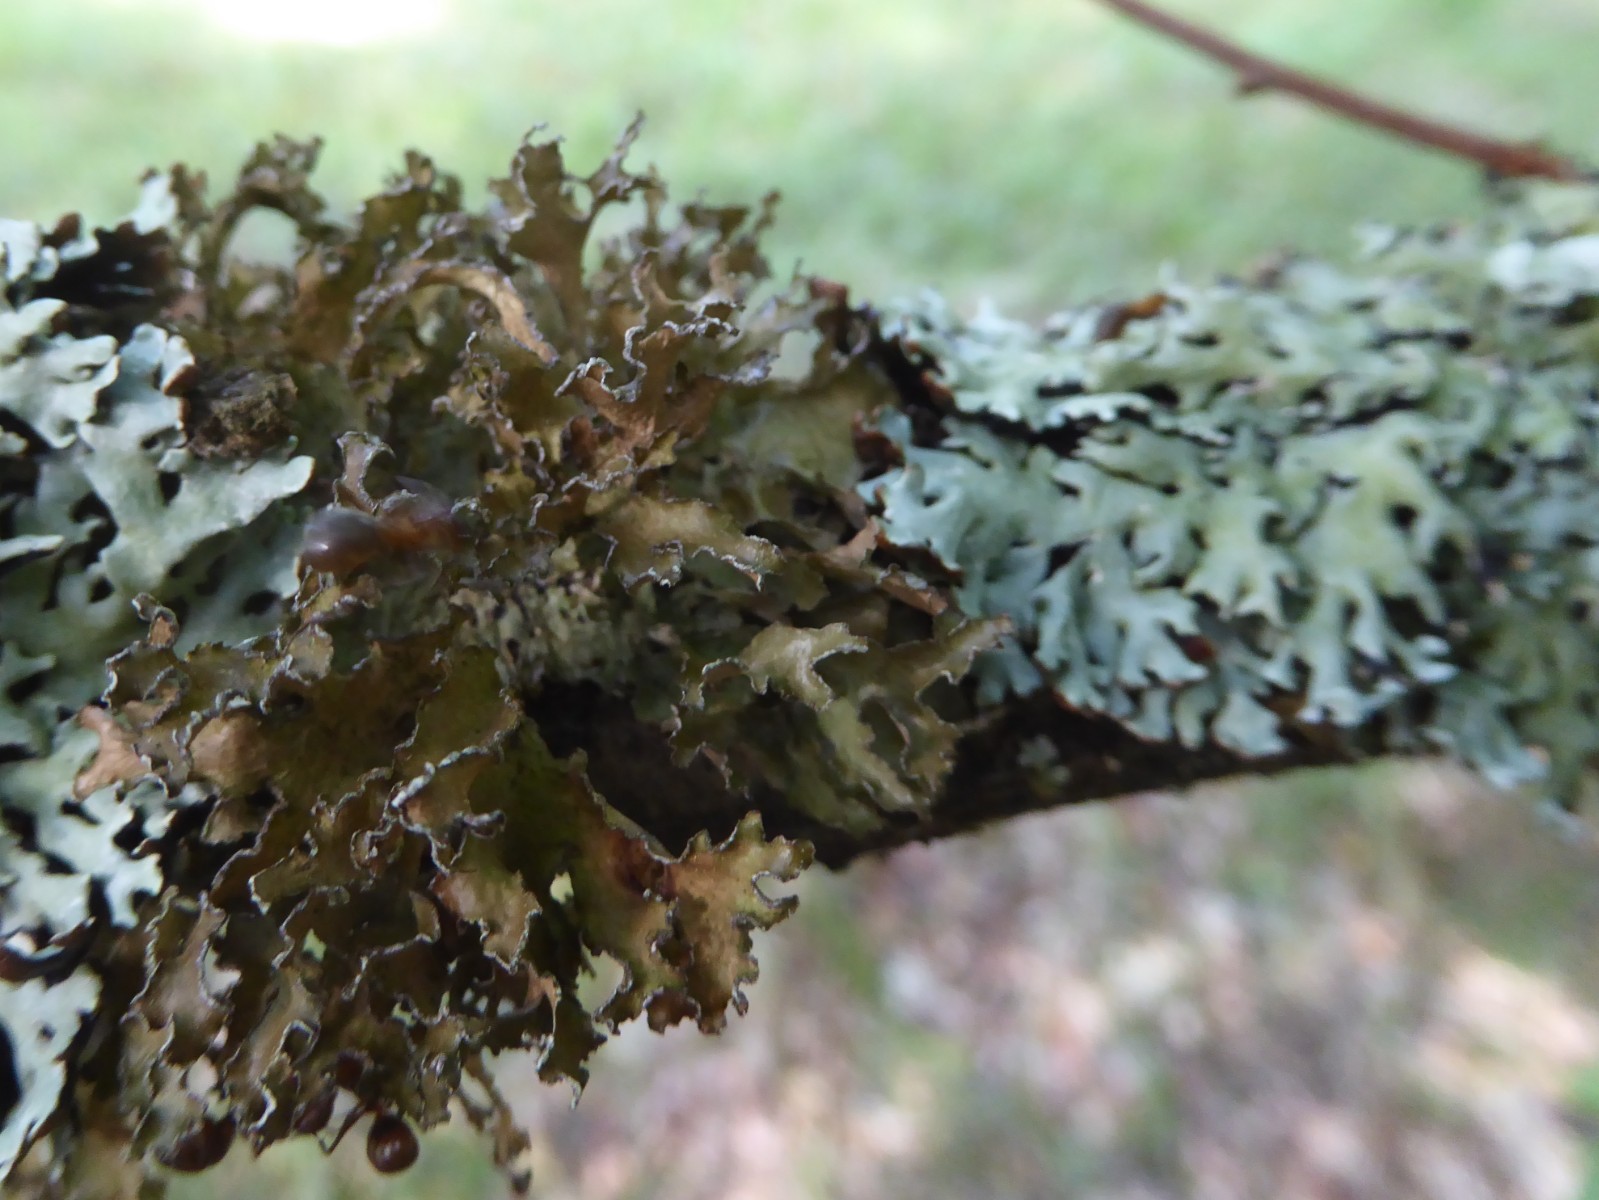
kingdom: Fungi
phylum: Ascomycota
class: Lecanoromycetes
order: Lecanorales
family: Parmeliaceae
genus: Nephromopsis
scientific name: Nephromopsis chlorophylla
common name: olivenbrun kruslav
